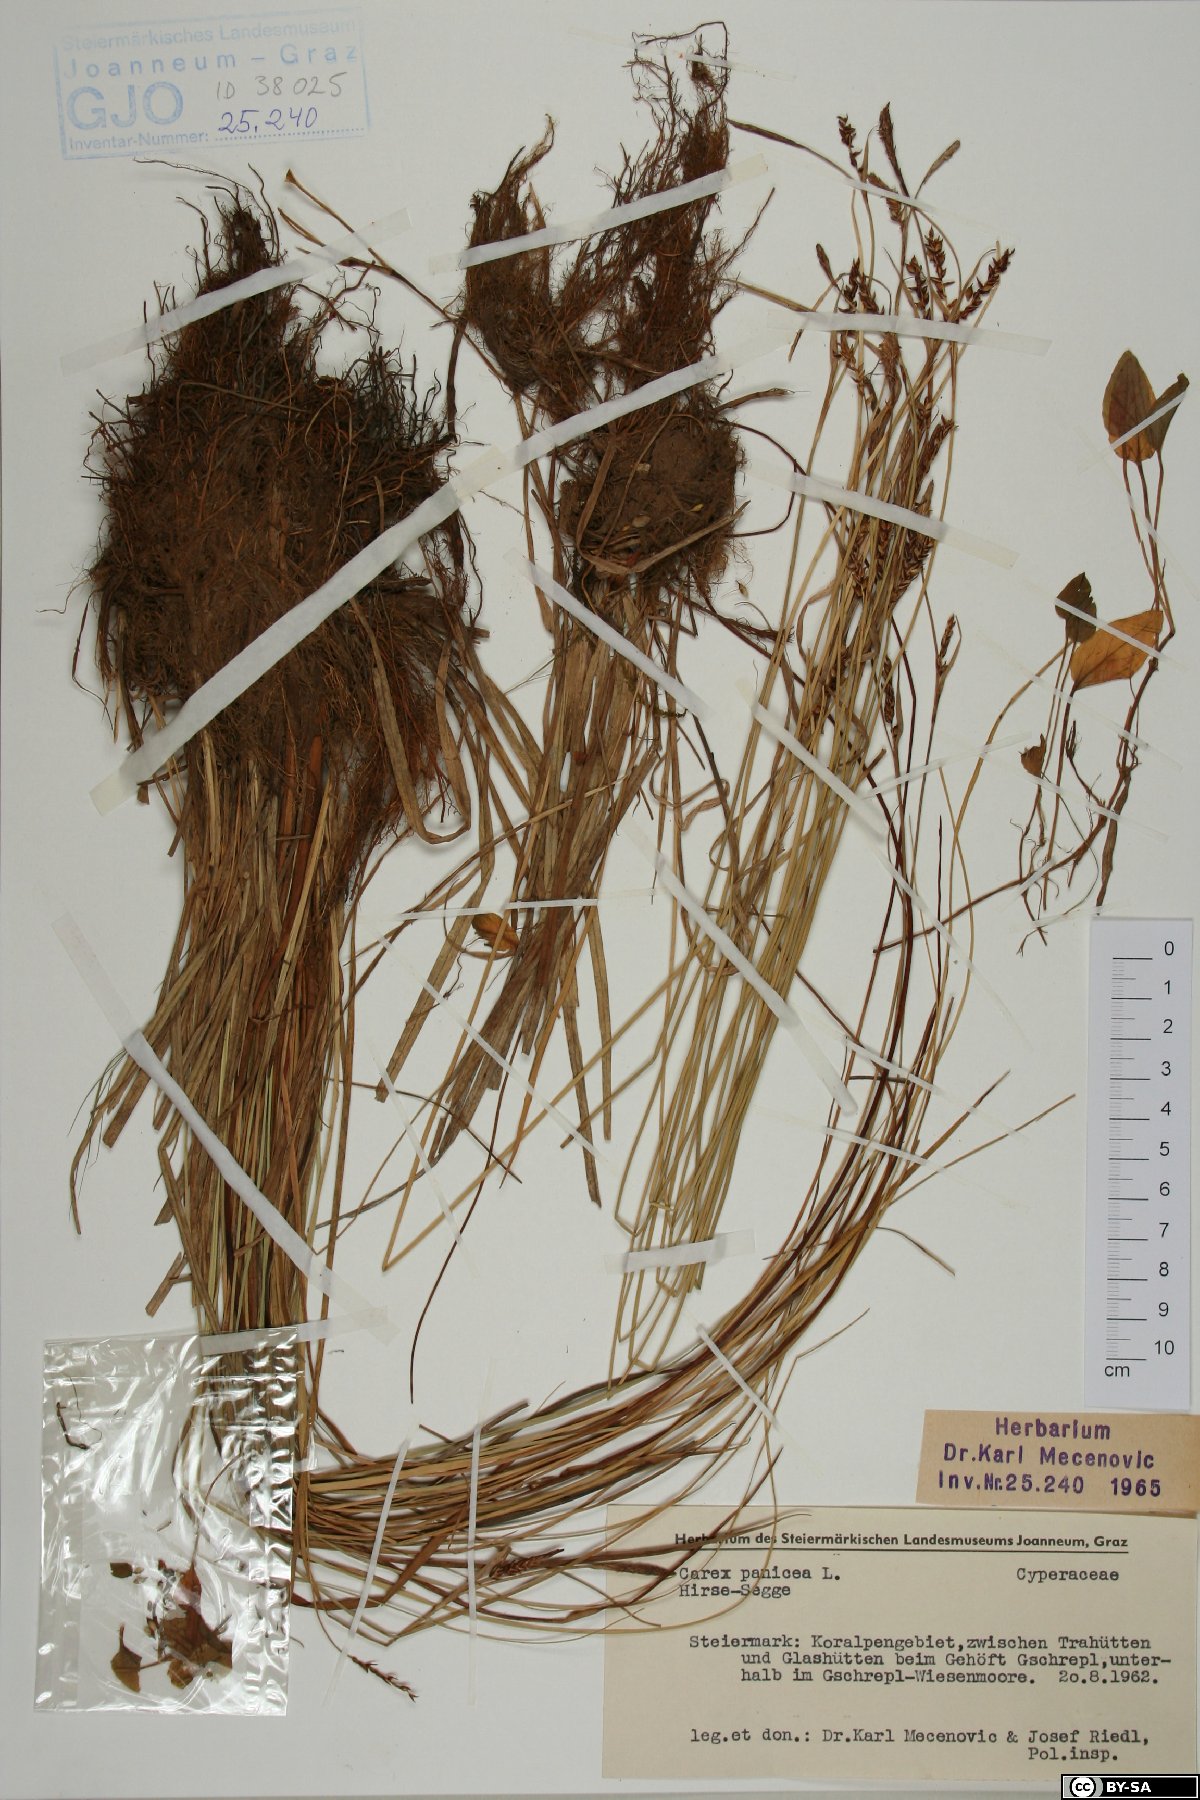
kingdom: Plantae
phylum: Tracheophyta
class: Liliopsida
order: Poales
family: Cyperaceae
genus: Carex
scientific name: Carex panicea
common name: Carnation sedge
